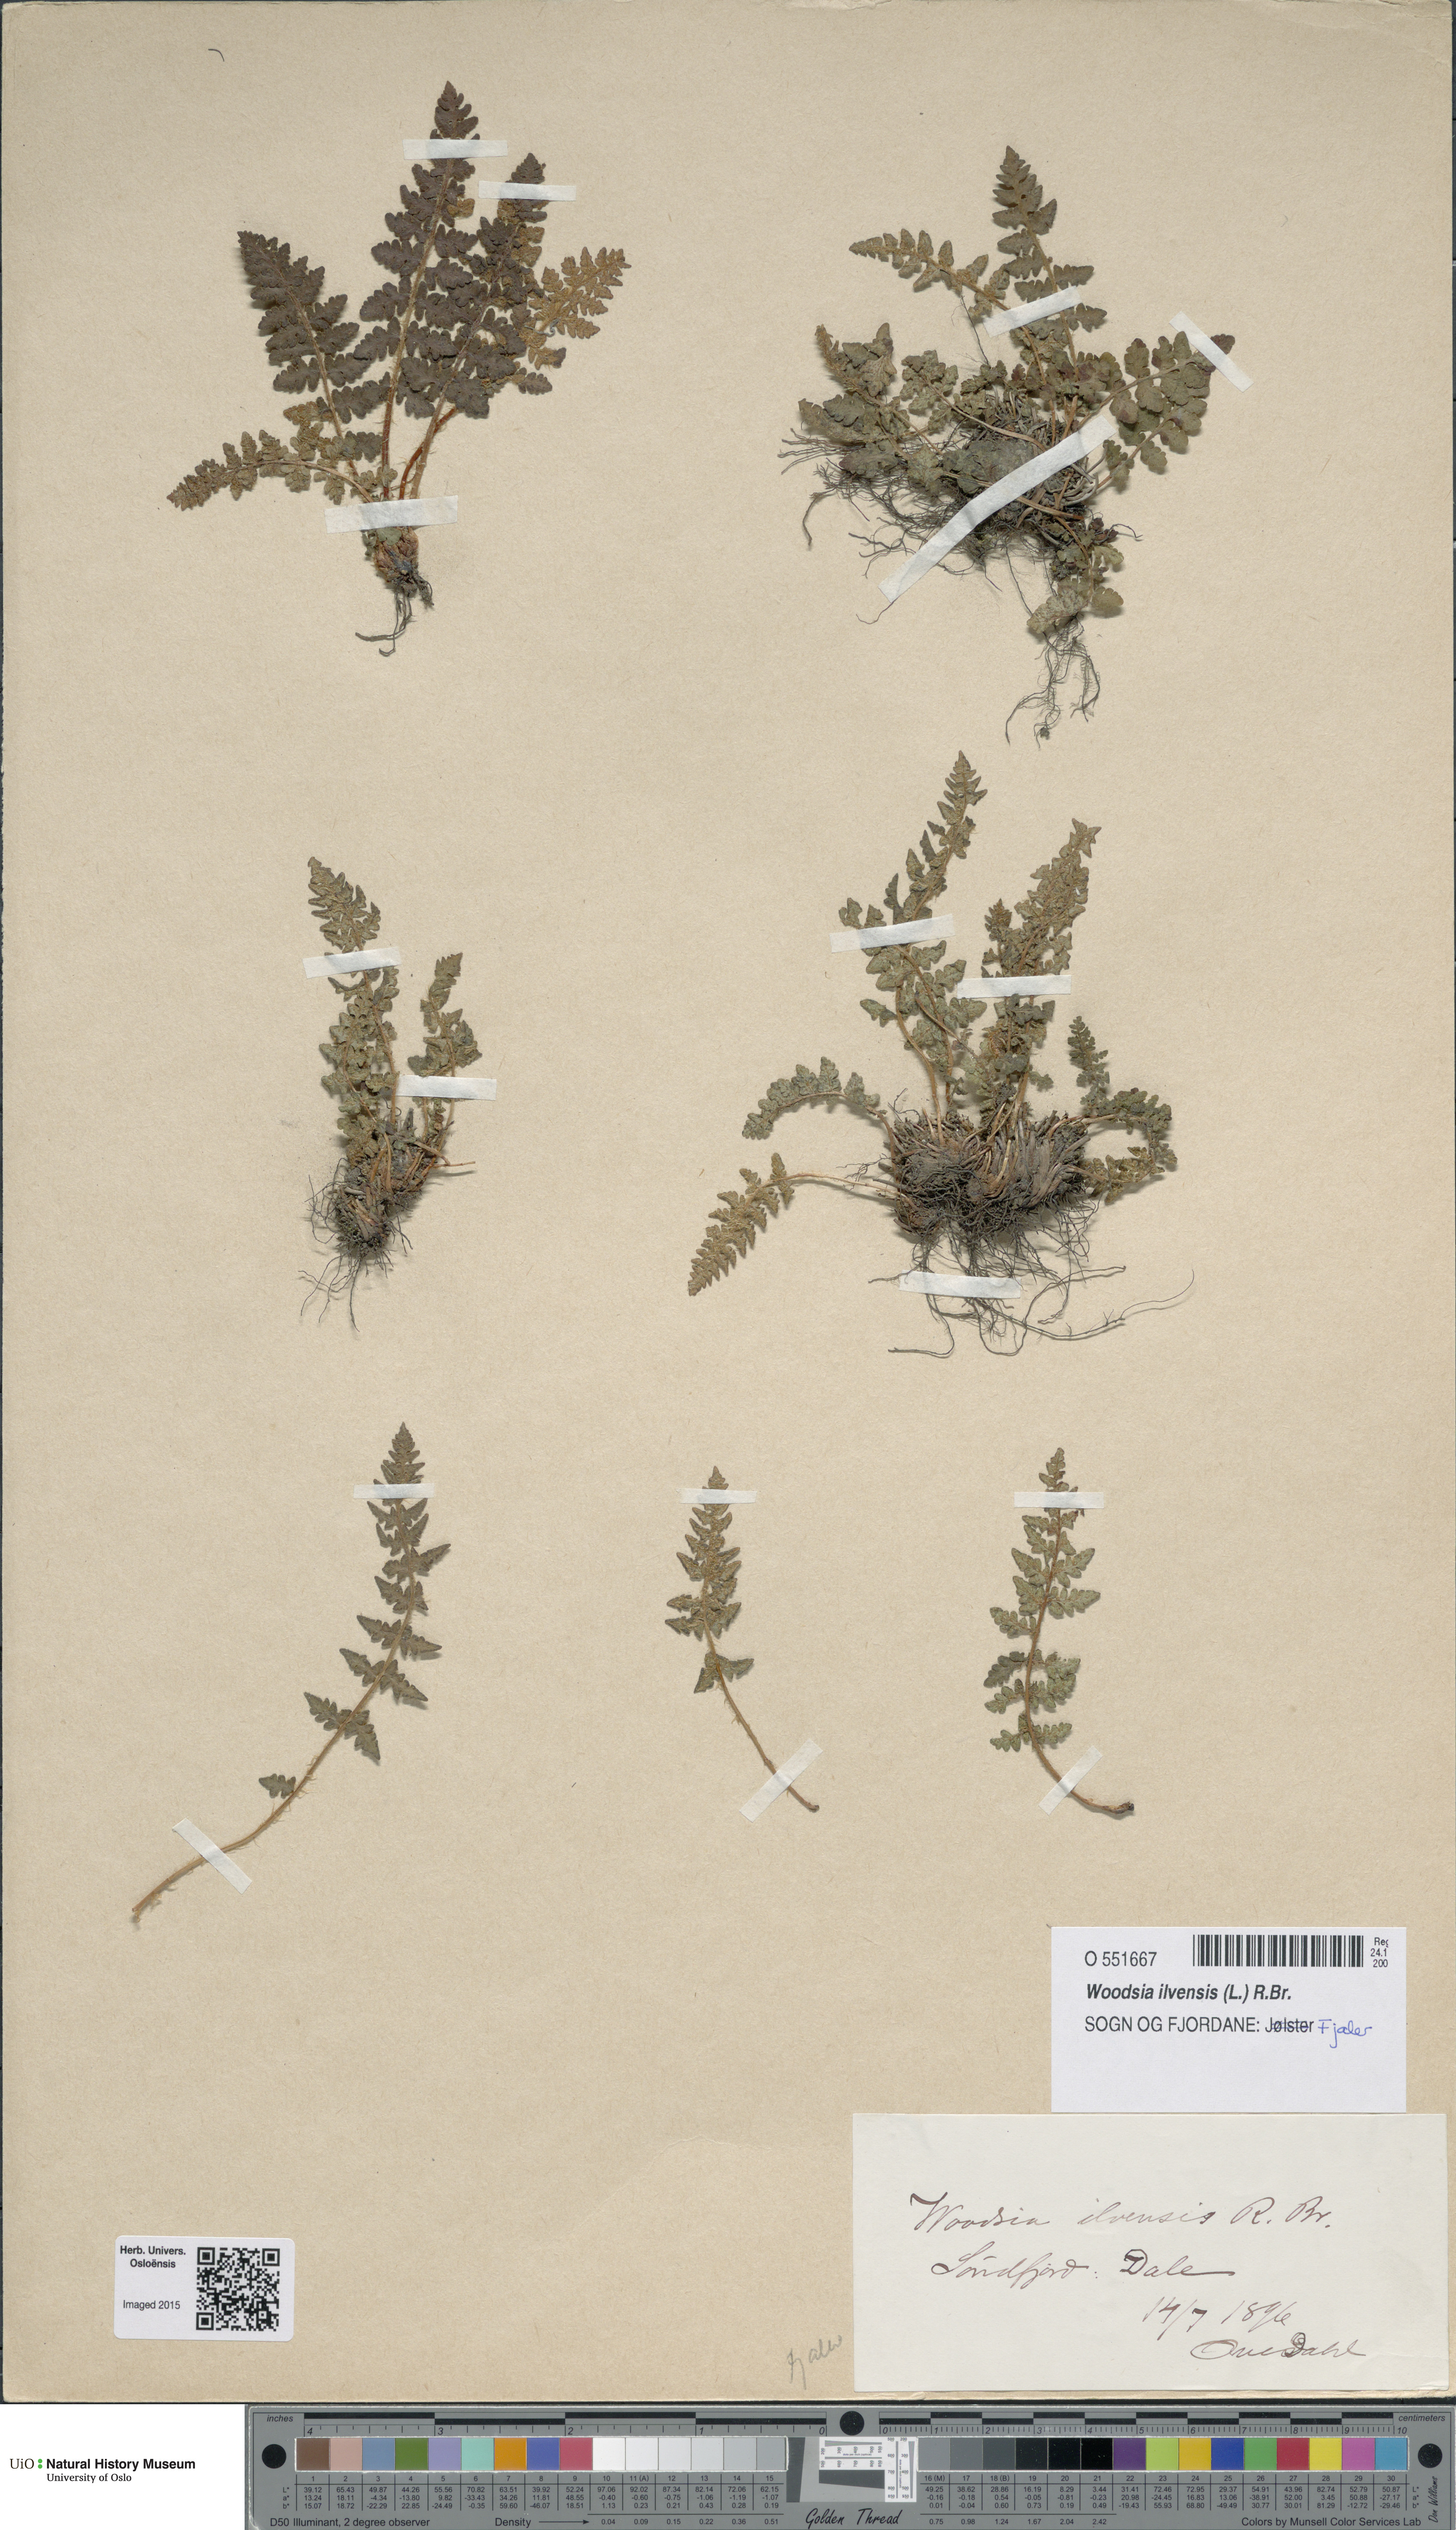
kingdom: Plantae
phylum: Tracheophyta
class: Polypodiopsida
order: Polypodiales
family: Woodsiaceae
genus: Woodsia
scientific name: Woodsia ilvensis
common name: Fragrant woodsia
